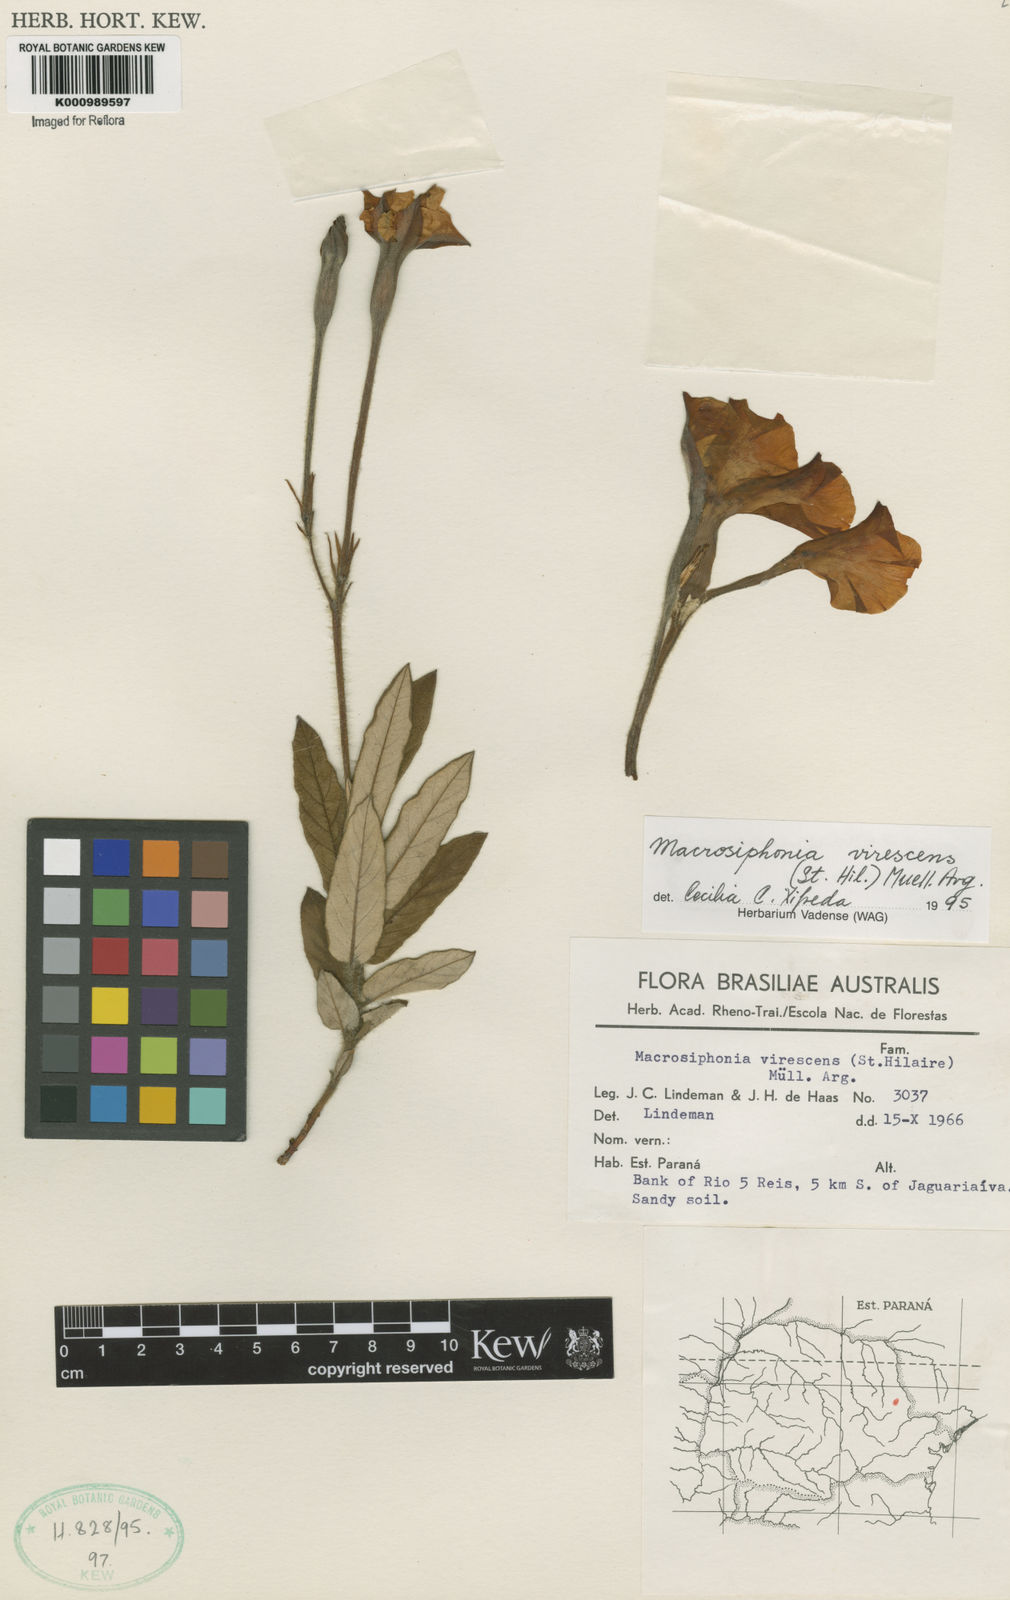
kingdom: Plantae
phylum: Tracheophyta
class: Magnoliopsida
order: Gentianales
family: Apocynaceae
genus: Mandevilla
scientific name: Mandevilla virescens
